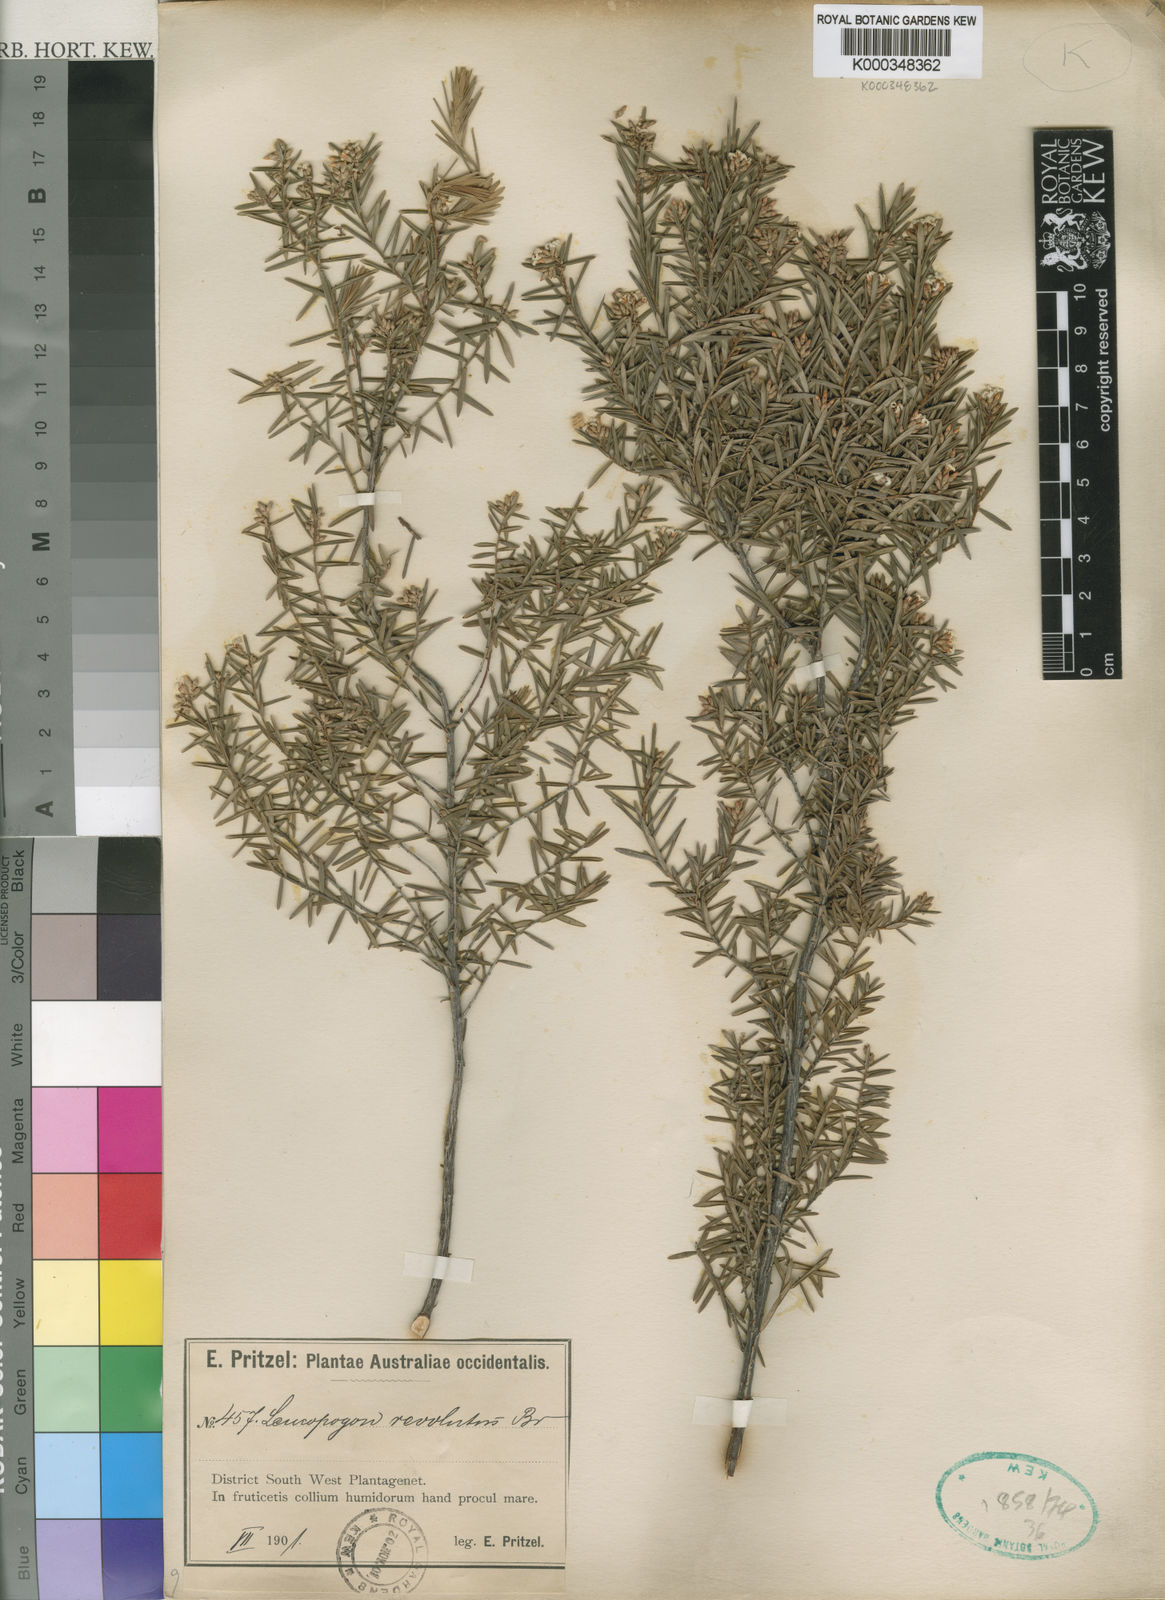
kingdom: Plantae
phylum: Tracheophyta
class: Magnoliopsida
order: Ericales
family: Ericaceae
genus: Leucopogon
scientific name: Leucopogon obovatus
